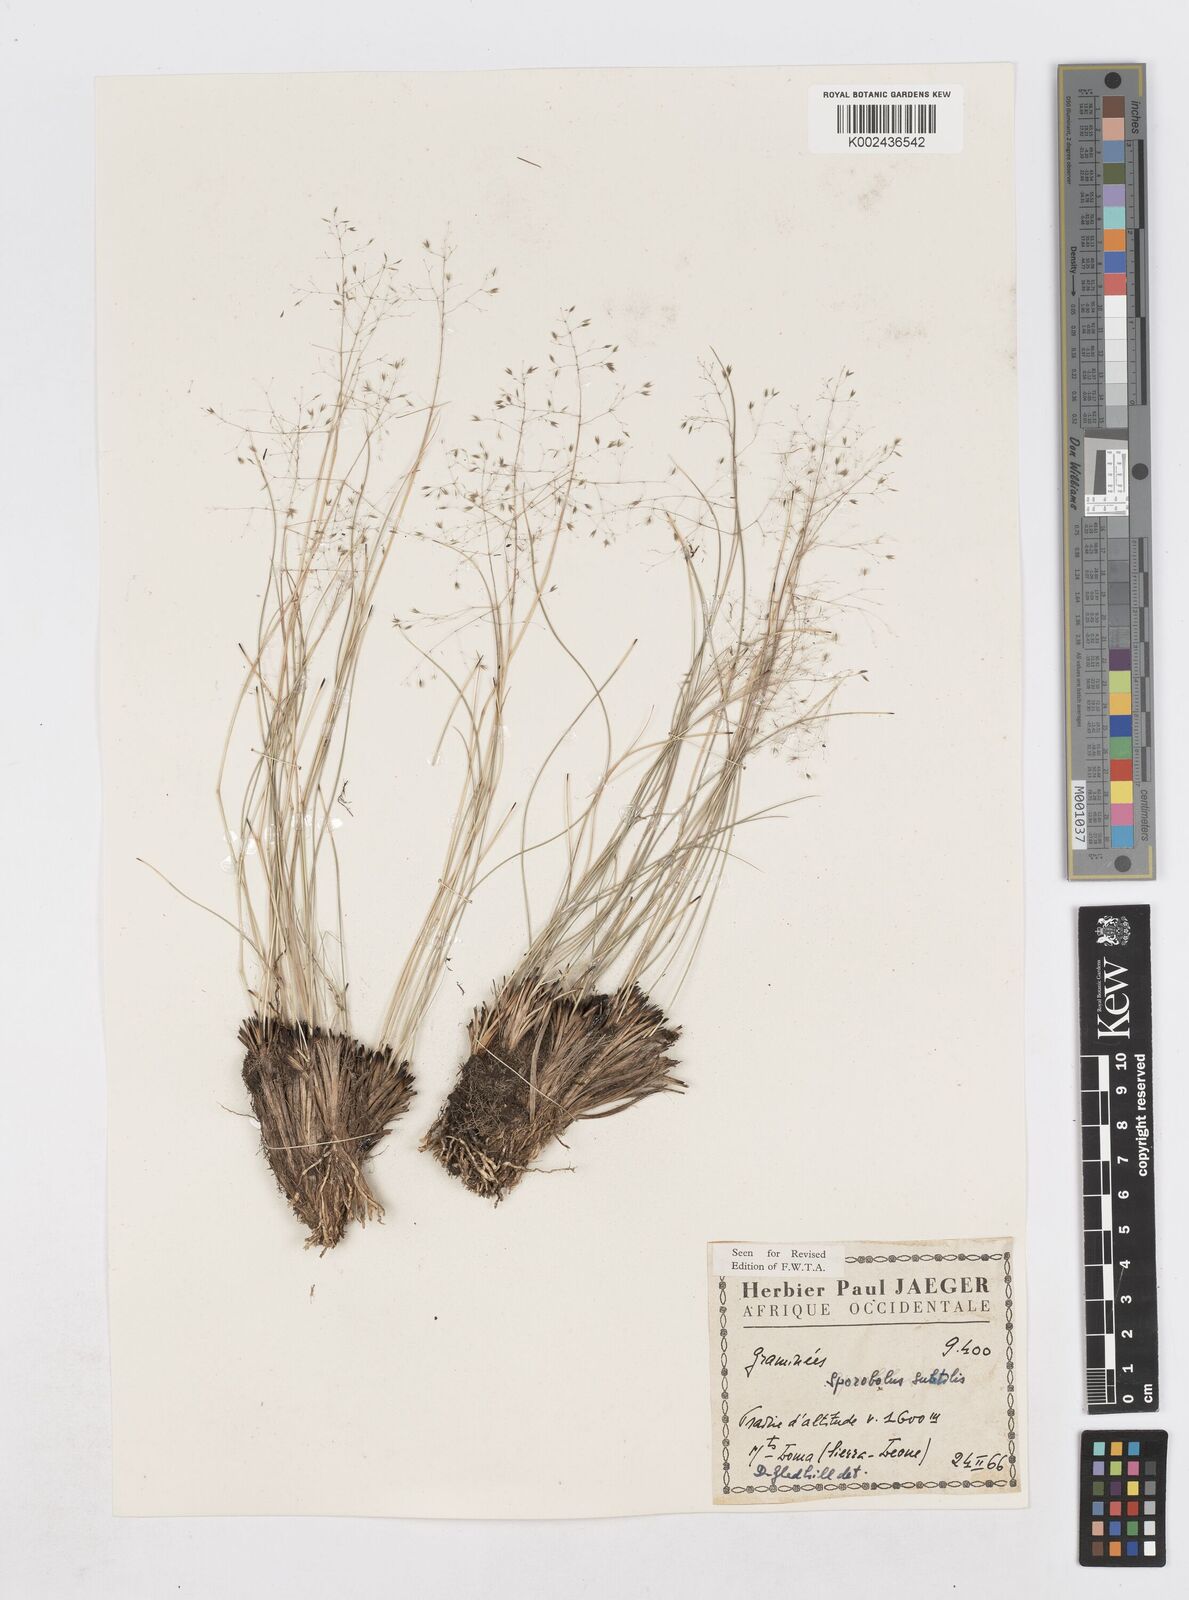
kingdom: Plantae
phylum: Tracheophyta
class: Liliopsida
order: Poales
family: Poaceae
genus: Sporobolus
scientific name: Sporobolus subtilis
